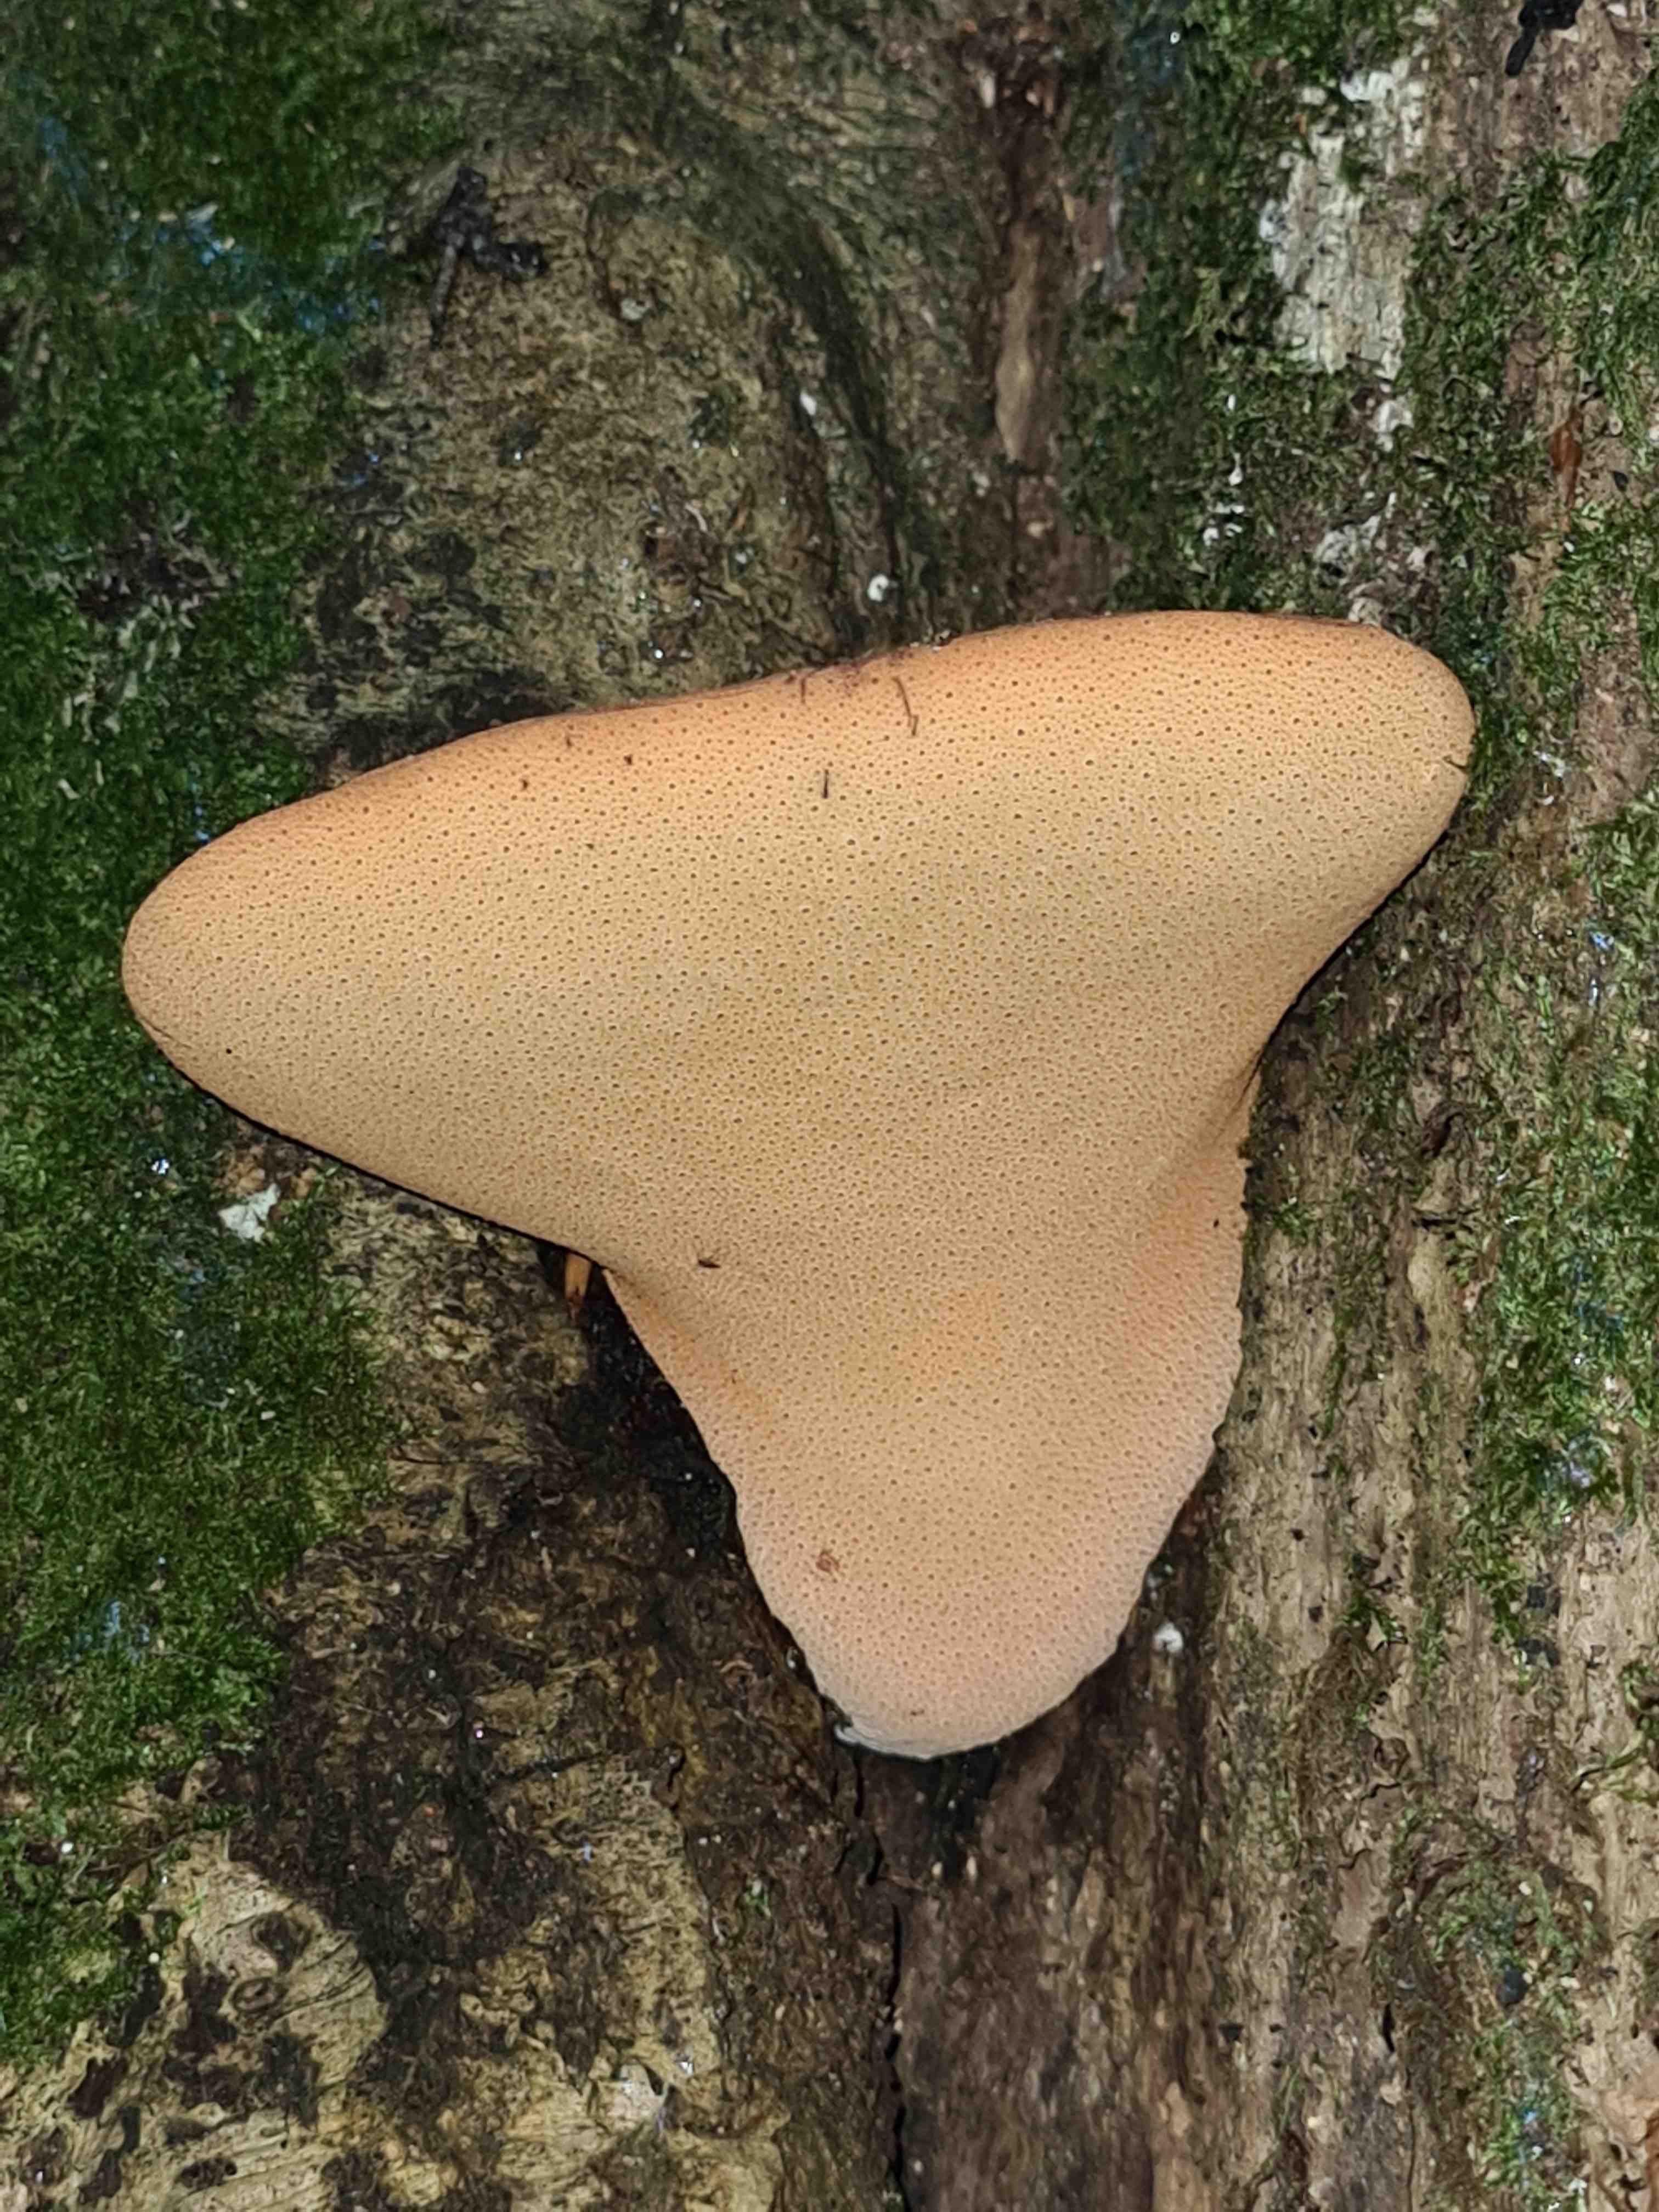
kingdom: Fungi
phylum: Basidiomycota
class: Agaricomycetes
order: Agaricales
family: Fistulinaceae
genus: Fistulina
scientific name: Fistulina hepatica
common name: oksetunge
